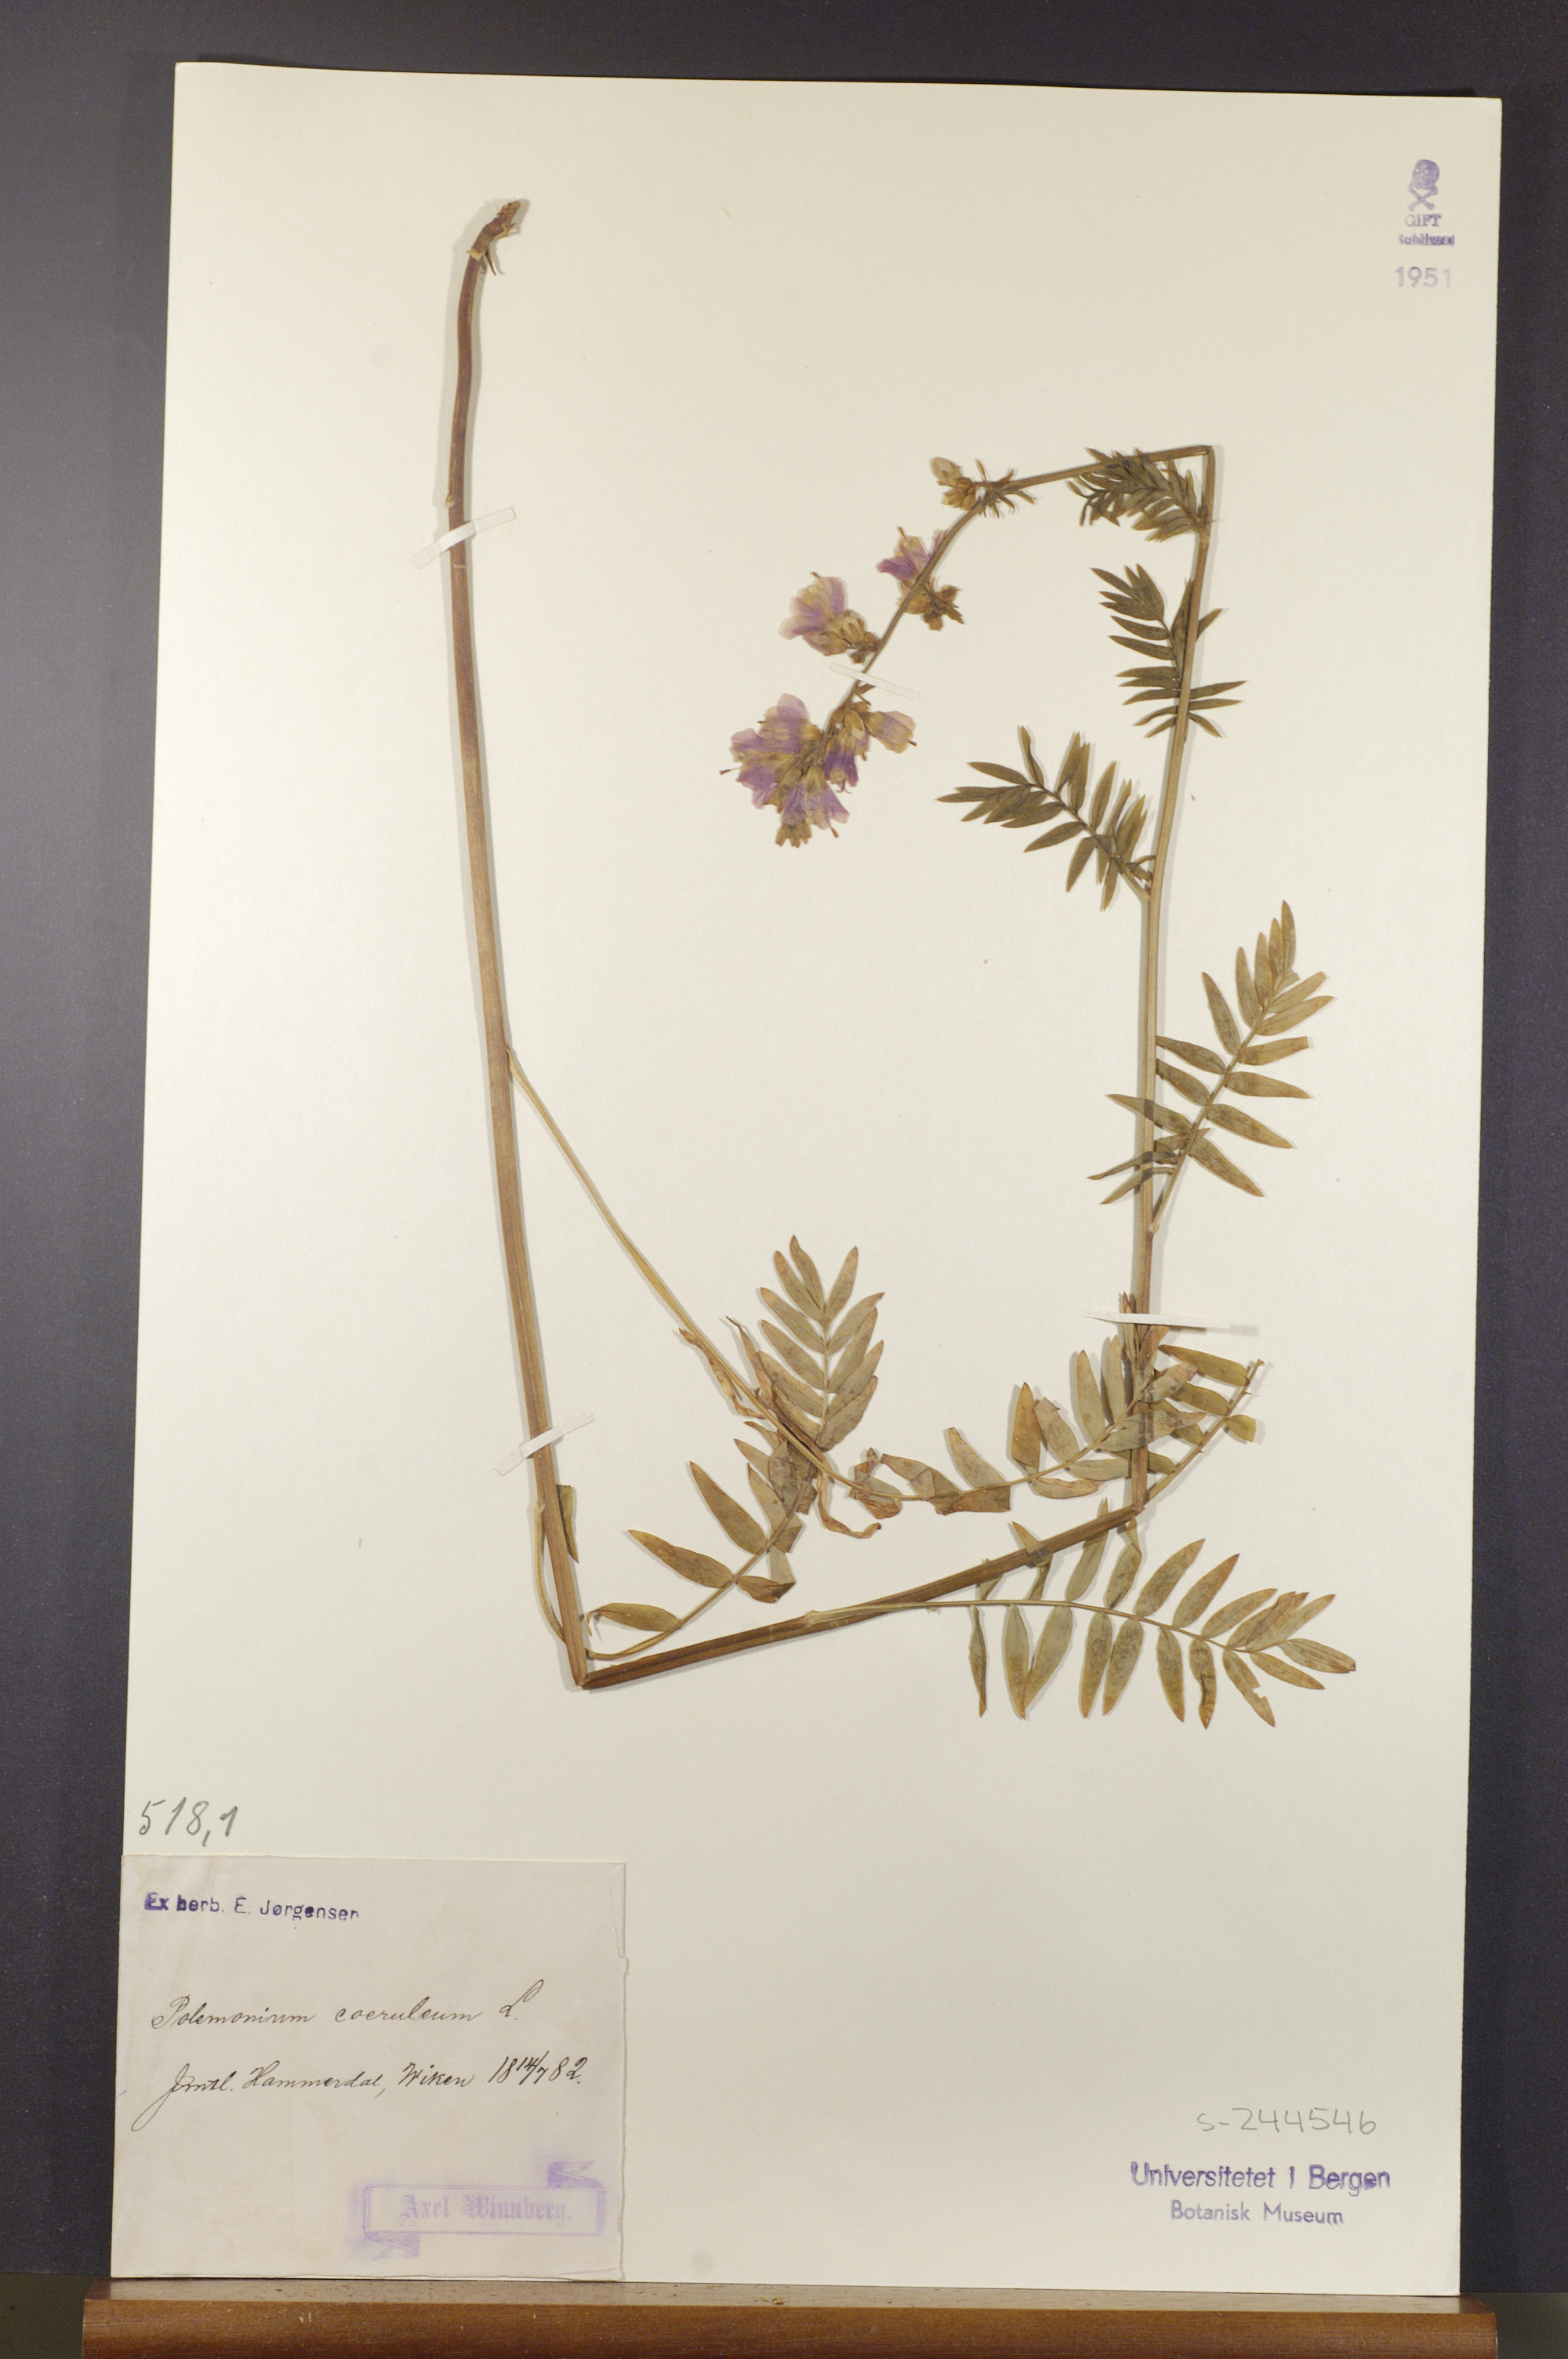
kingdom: Plantae
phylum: Tracheophyta
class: Magnoliopsida
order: Ericales
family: Polemoniaceae
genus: Polemonium
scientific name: Polemonium caeruleum
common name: Jacob's-ladder
